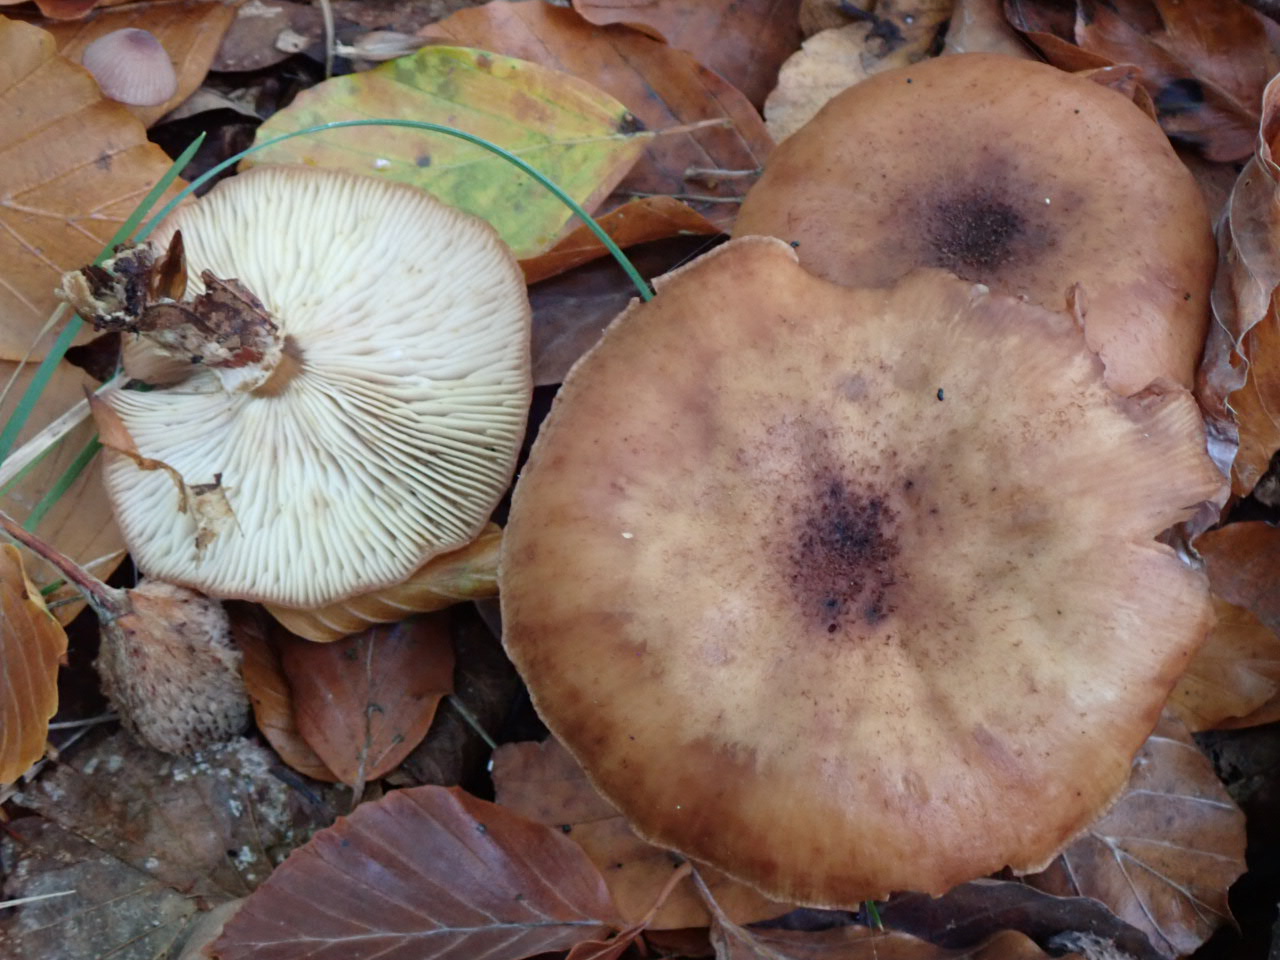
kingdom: Fungi
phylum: Basidiomycota
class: Agaricomycetes
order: Agaricales
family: Physalacriaceae
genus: Armillaria
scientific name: Armillaria
